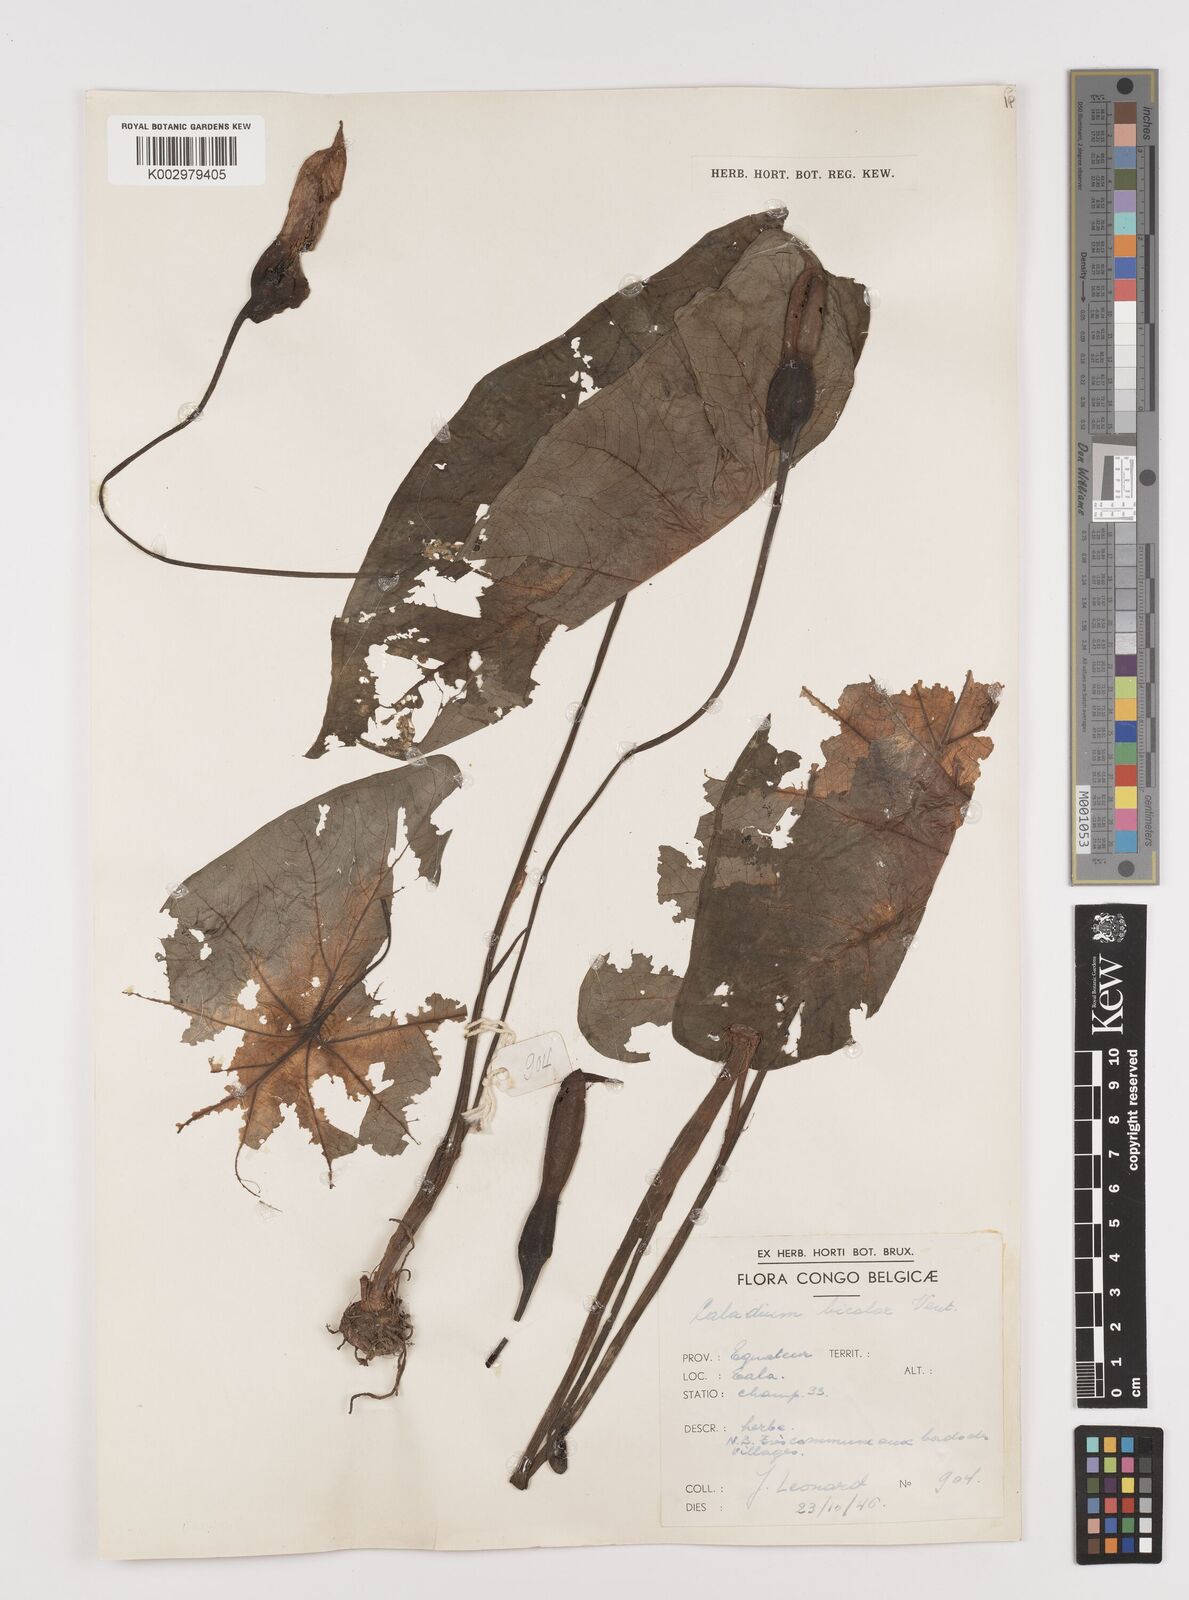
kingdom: Plantae
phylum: Tracheophyta
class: Liliopsida
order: Alismatales
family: Araceae
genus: Caladium
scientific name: Caladium bicolor
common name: Artist's pallet
